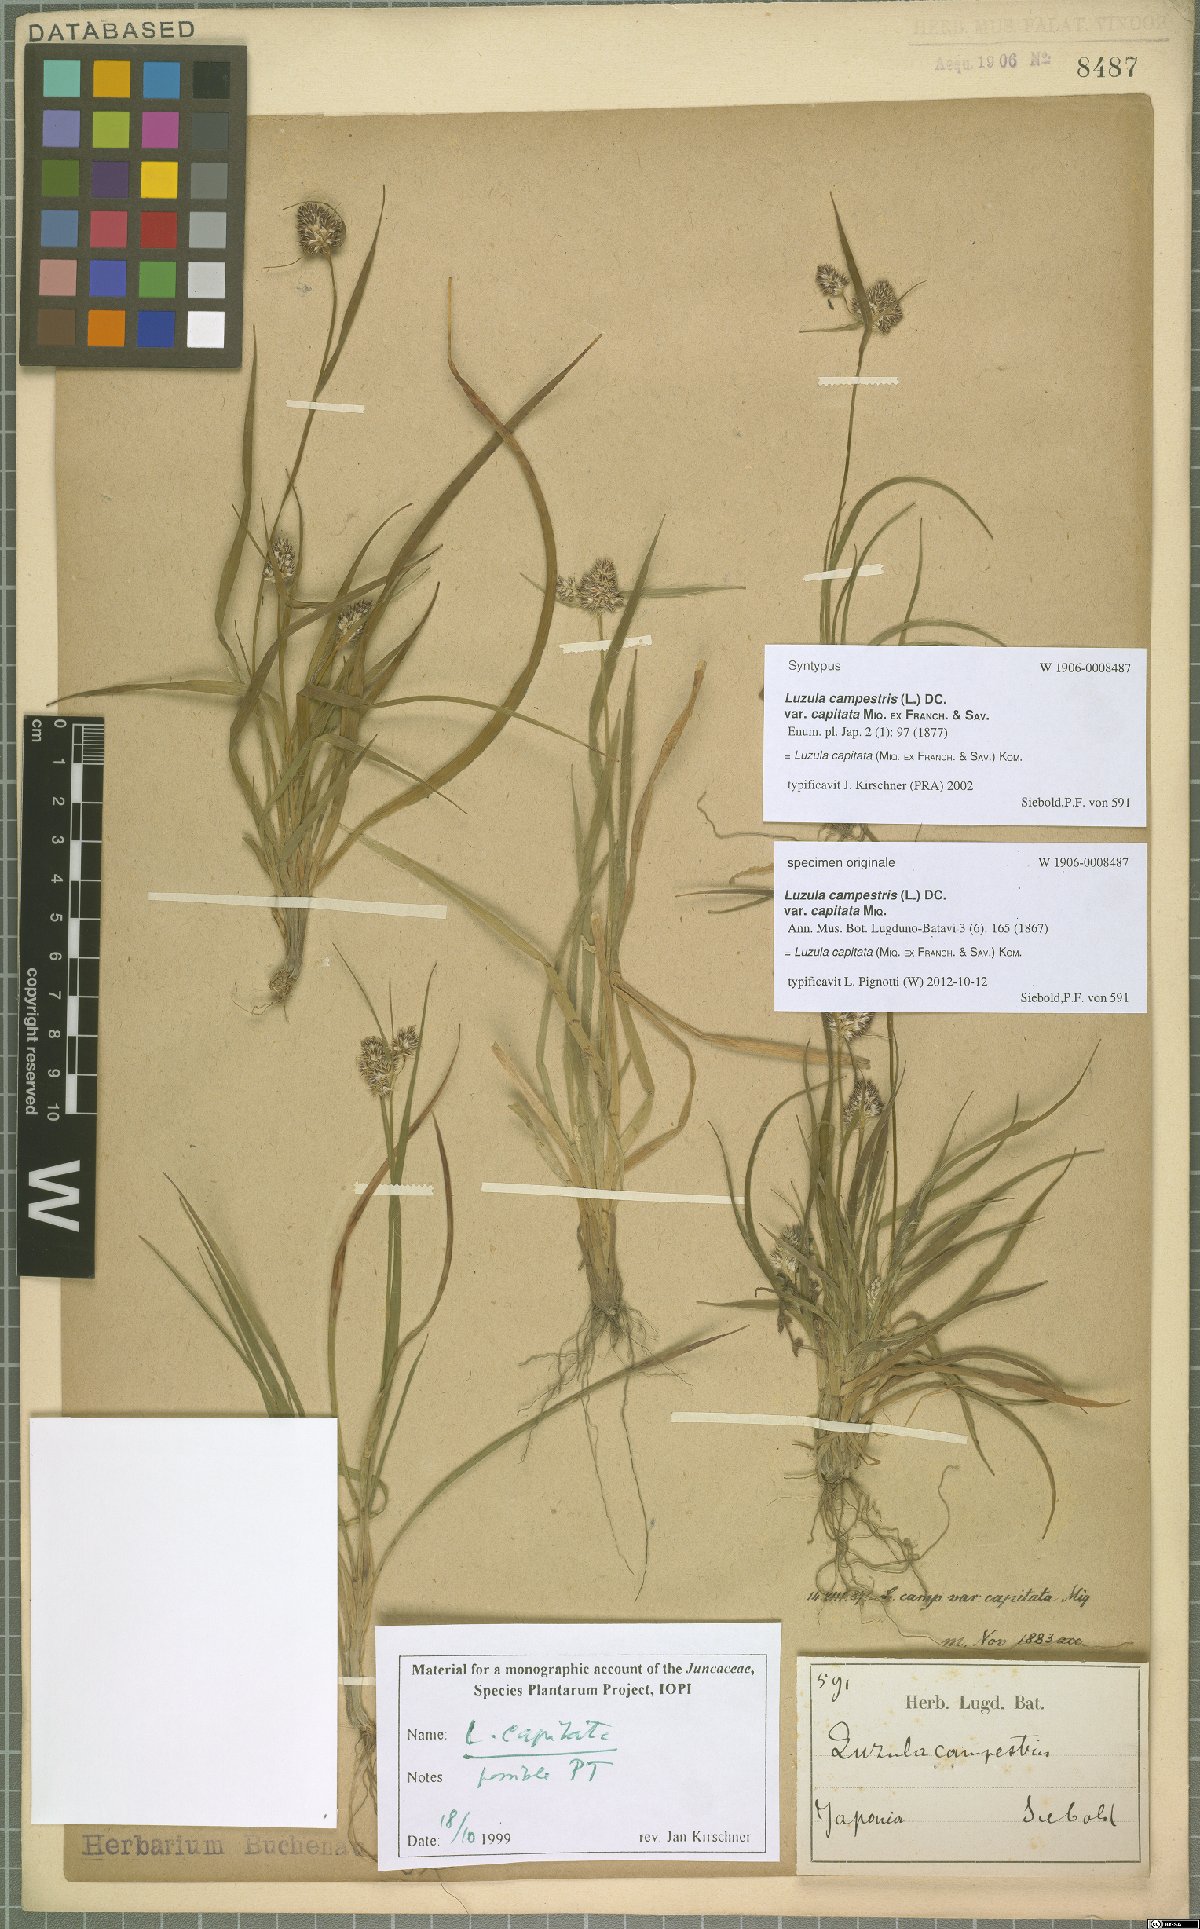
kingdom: Plantae
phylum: Tracheophyta
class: Liliopsida
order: Poales
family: Juncaceae
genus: Luzula
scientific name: Luzula capitata
